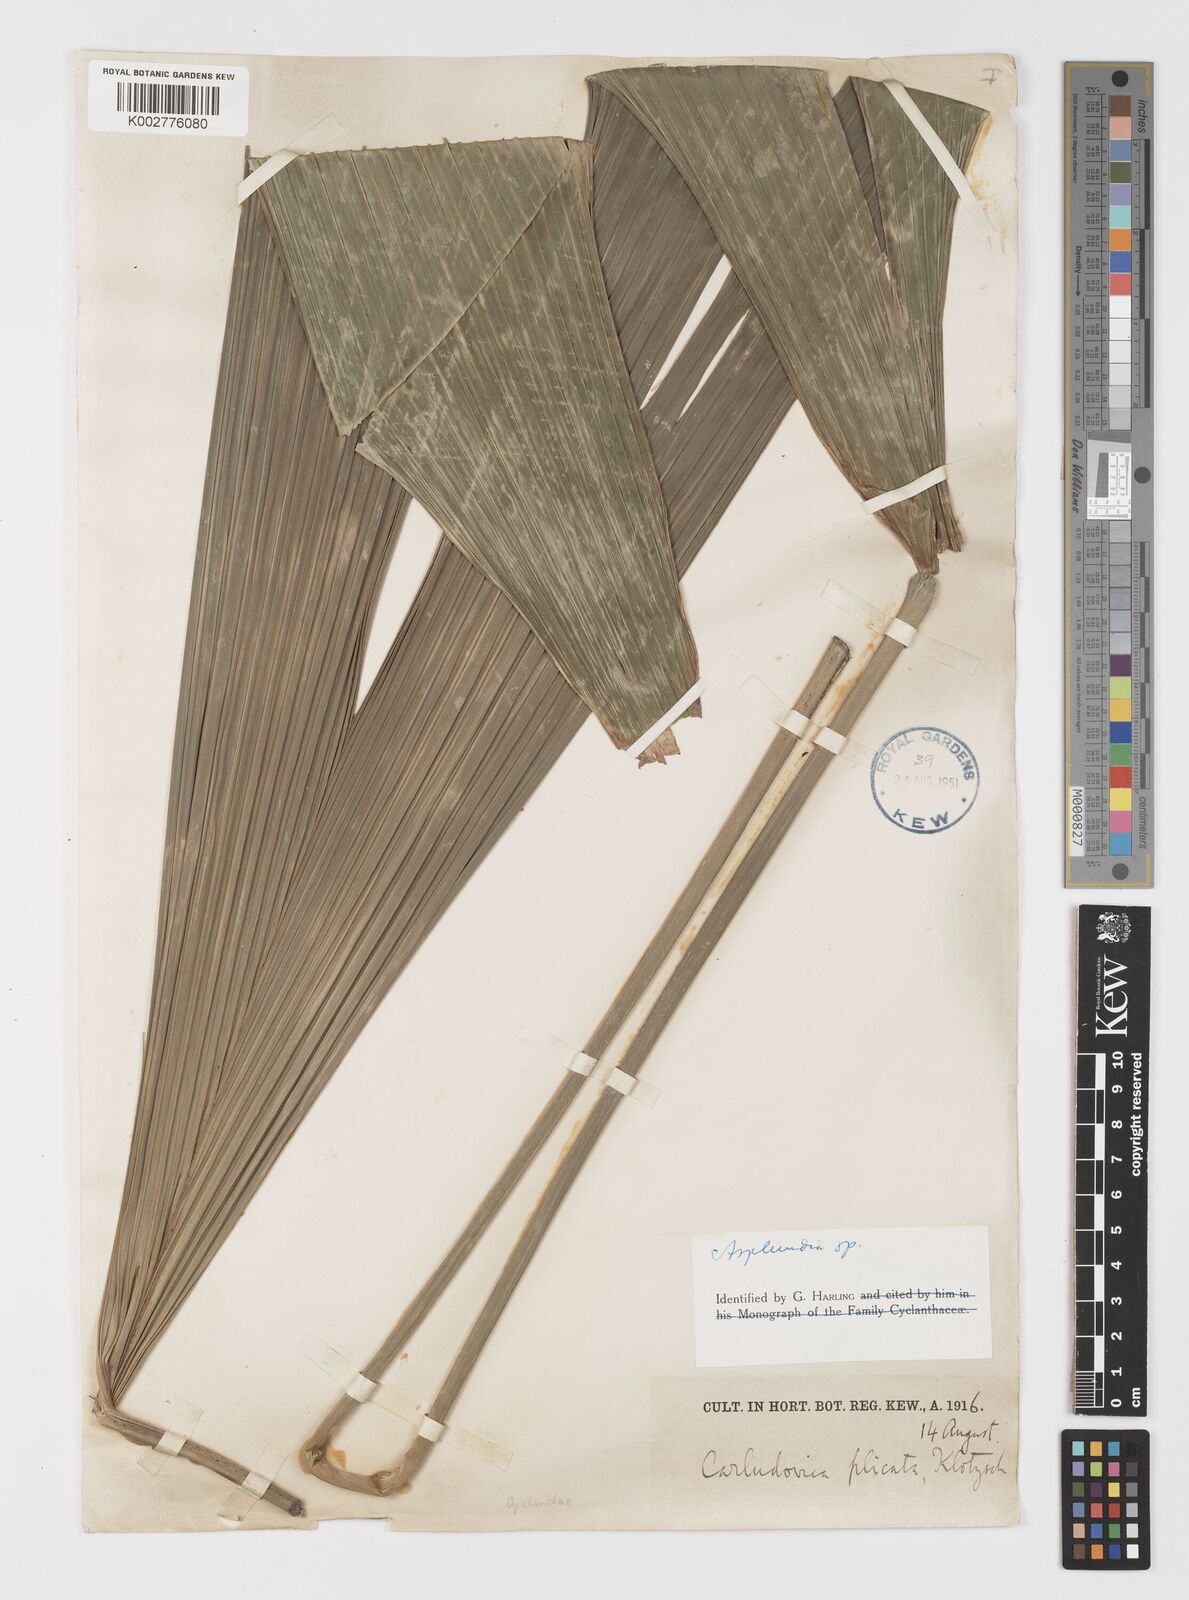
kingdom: Plantae
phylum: Tracheophyta
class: Liliopsida
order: Pandanales
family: Cyclanthaceae
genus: Asplundia
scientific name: Asplundia
